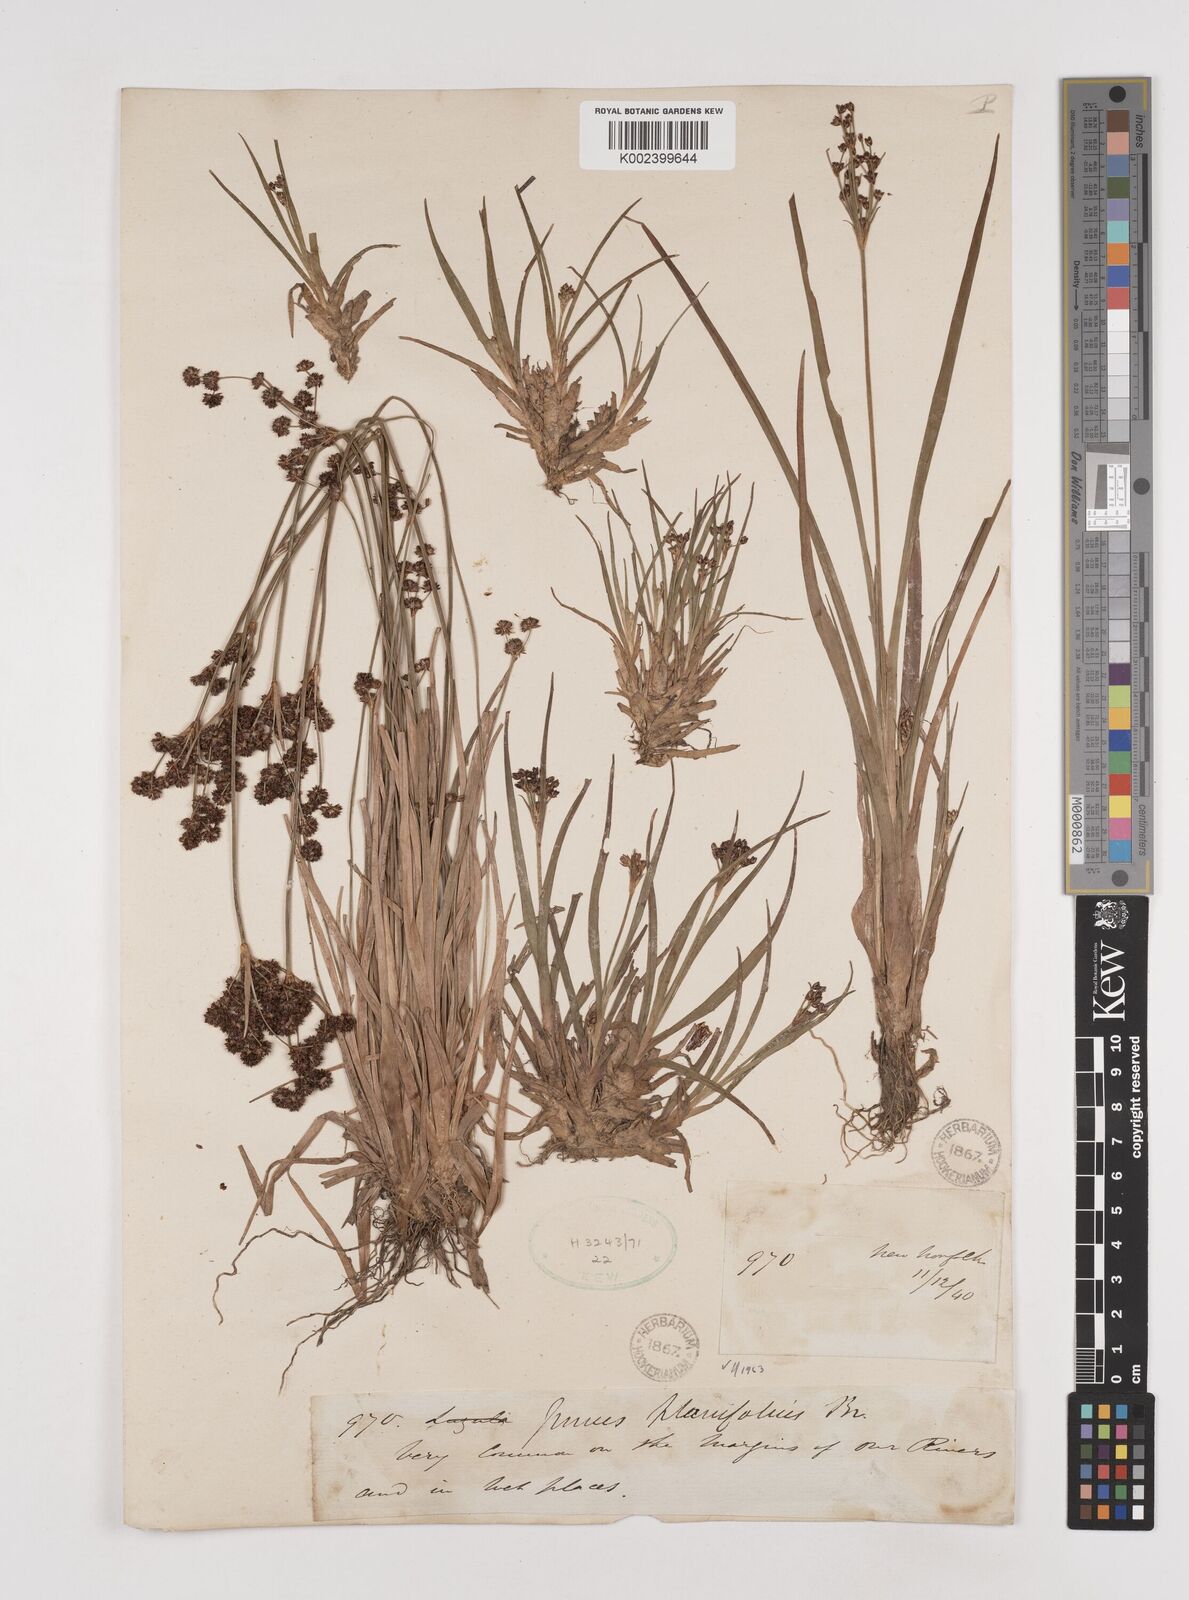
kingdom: Plantae
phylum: Tracheophyta
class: Liliopsida
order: Poales
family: Juncaceae
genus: Juncus
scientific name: Juncus planifolius
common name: Broadleaf rush
